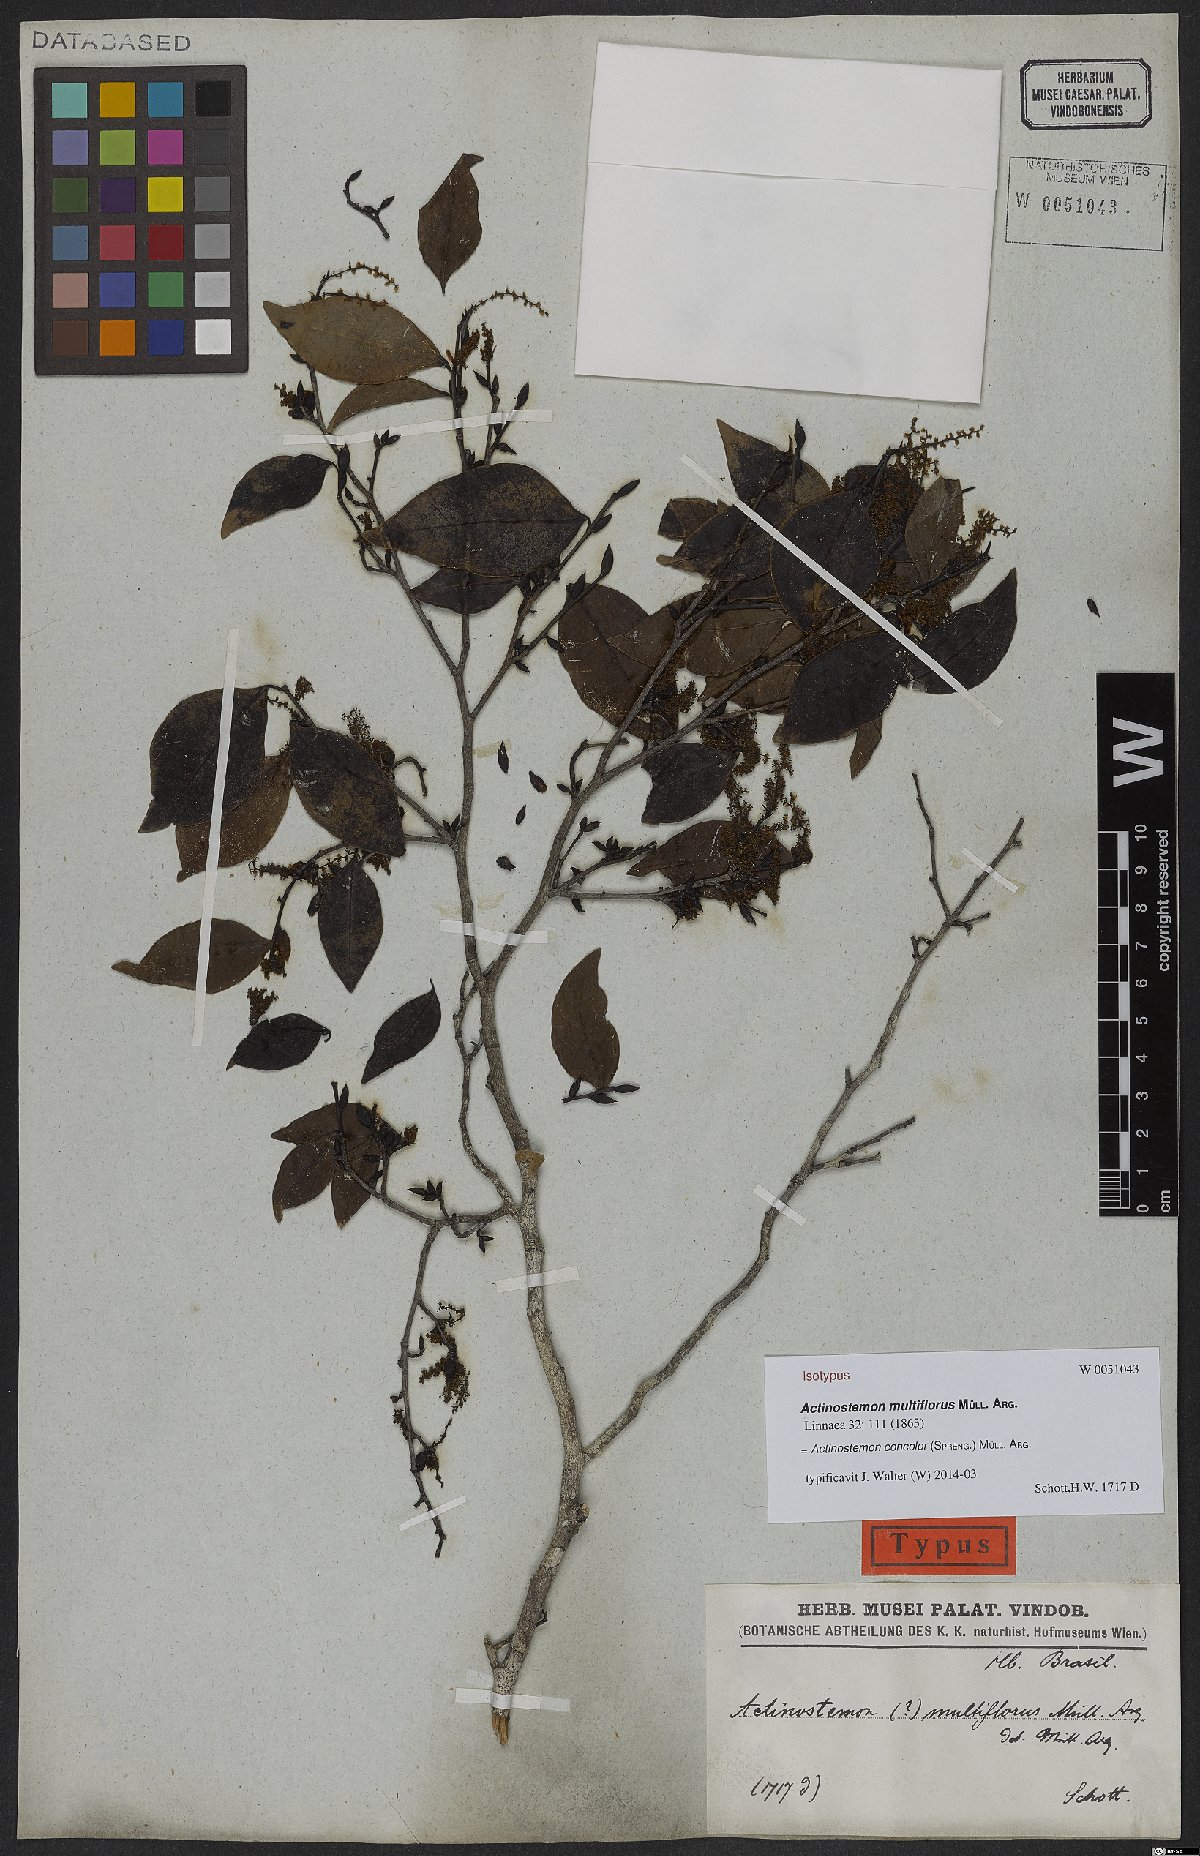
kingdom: Plantae
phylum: Tracheophyta
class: Magnoliopsida
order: Malpighiales
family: Euphorbiaceae
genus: Actinostemon
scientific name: Actinostemon concolor
